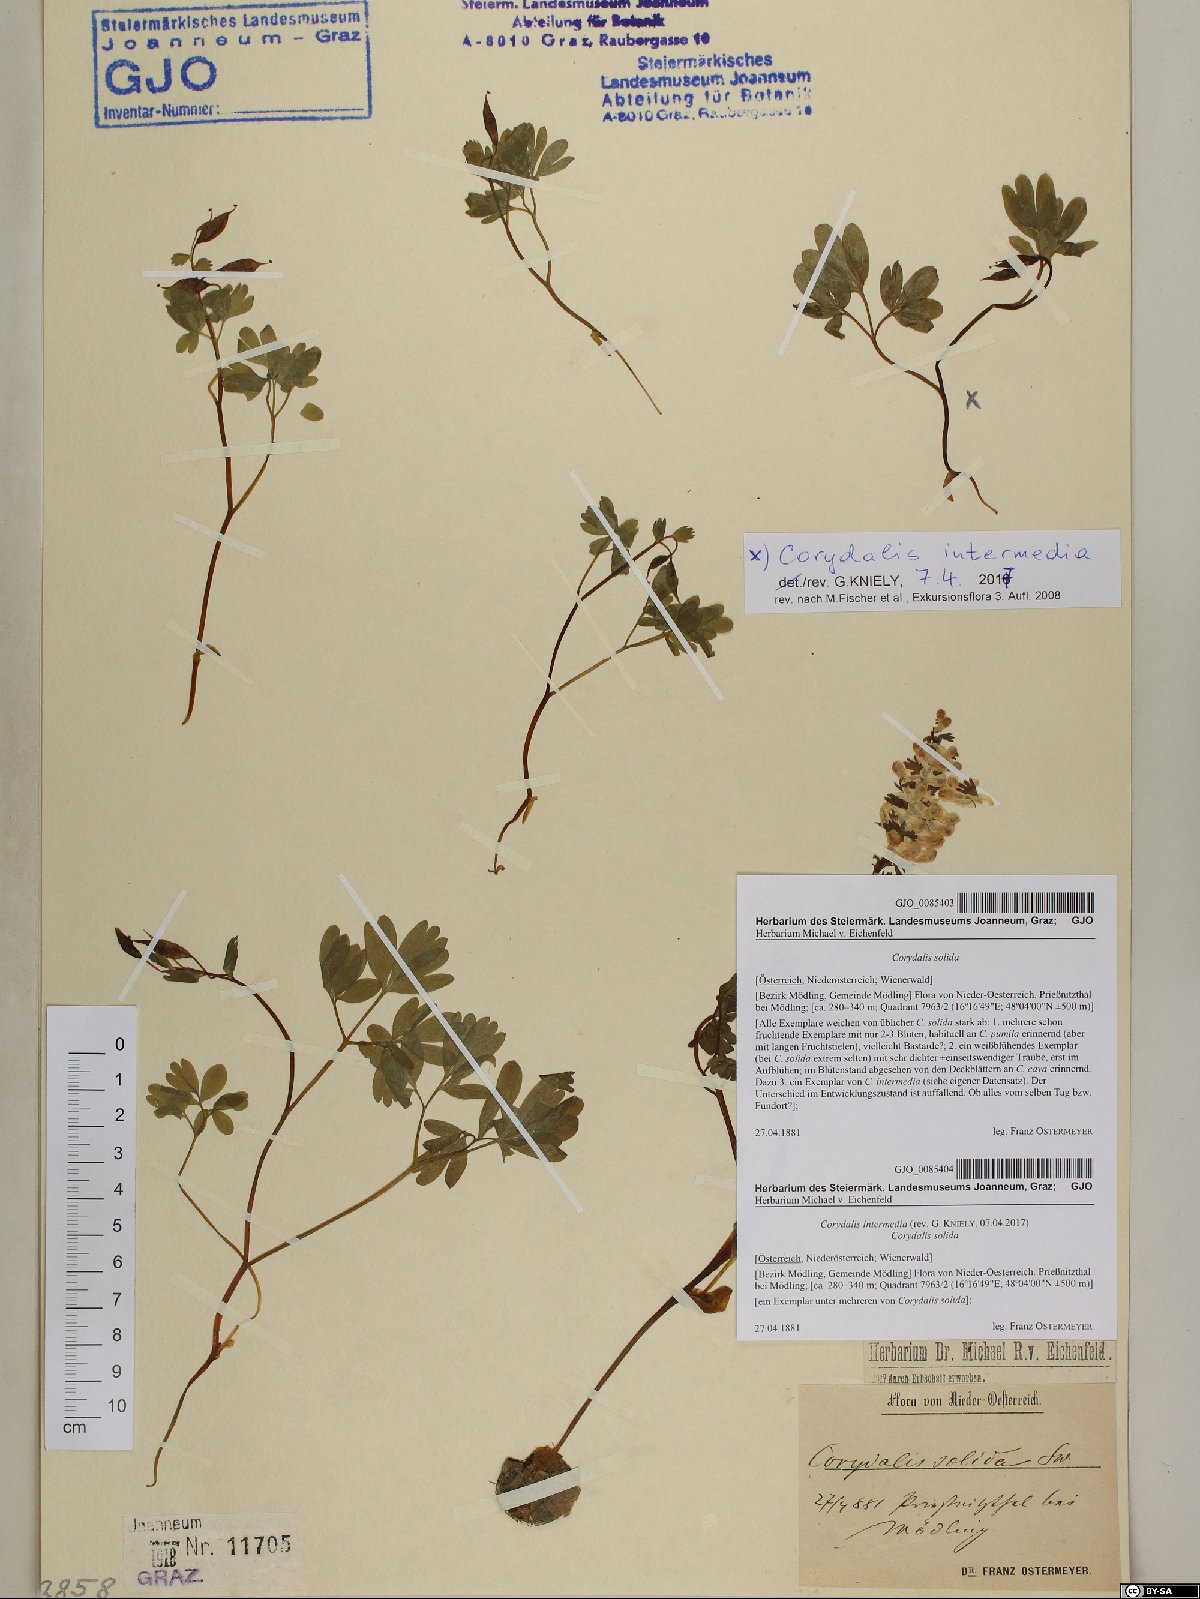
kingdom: Plantae
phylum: Tracheophyta
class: Magnoliopsida
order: Ranunculales
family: Papaveraceae
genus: Corydalis
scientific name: Corydalis solida
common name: Bird-in-a-bush
